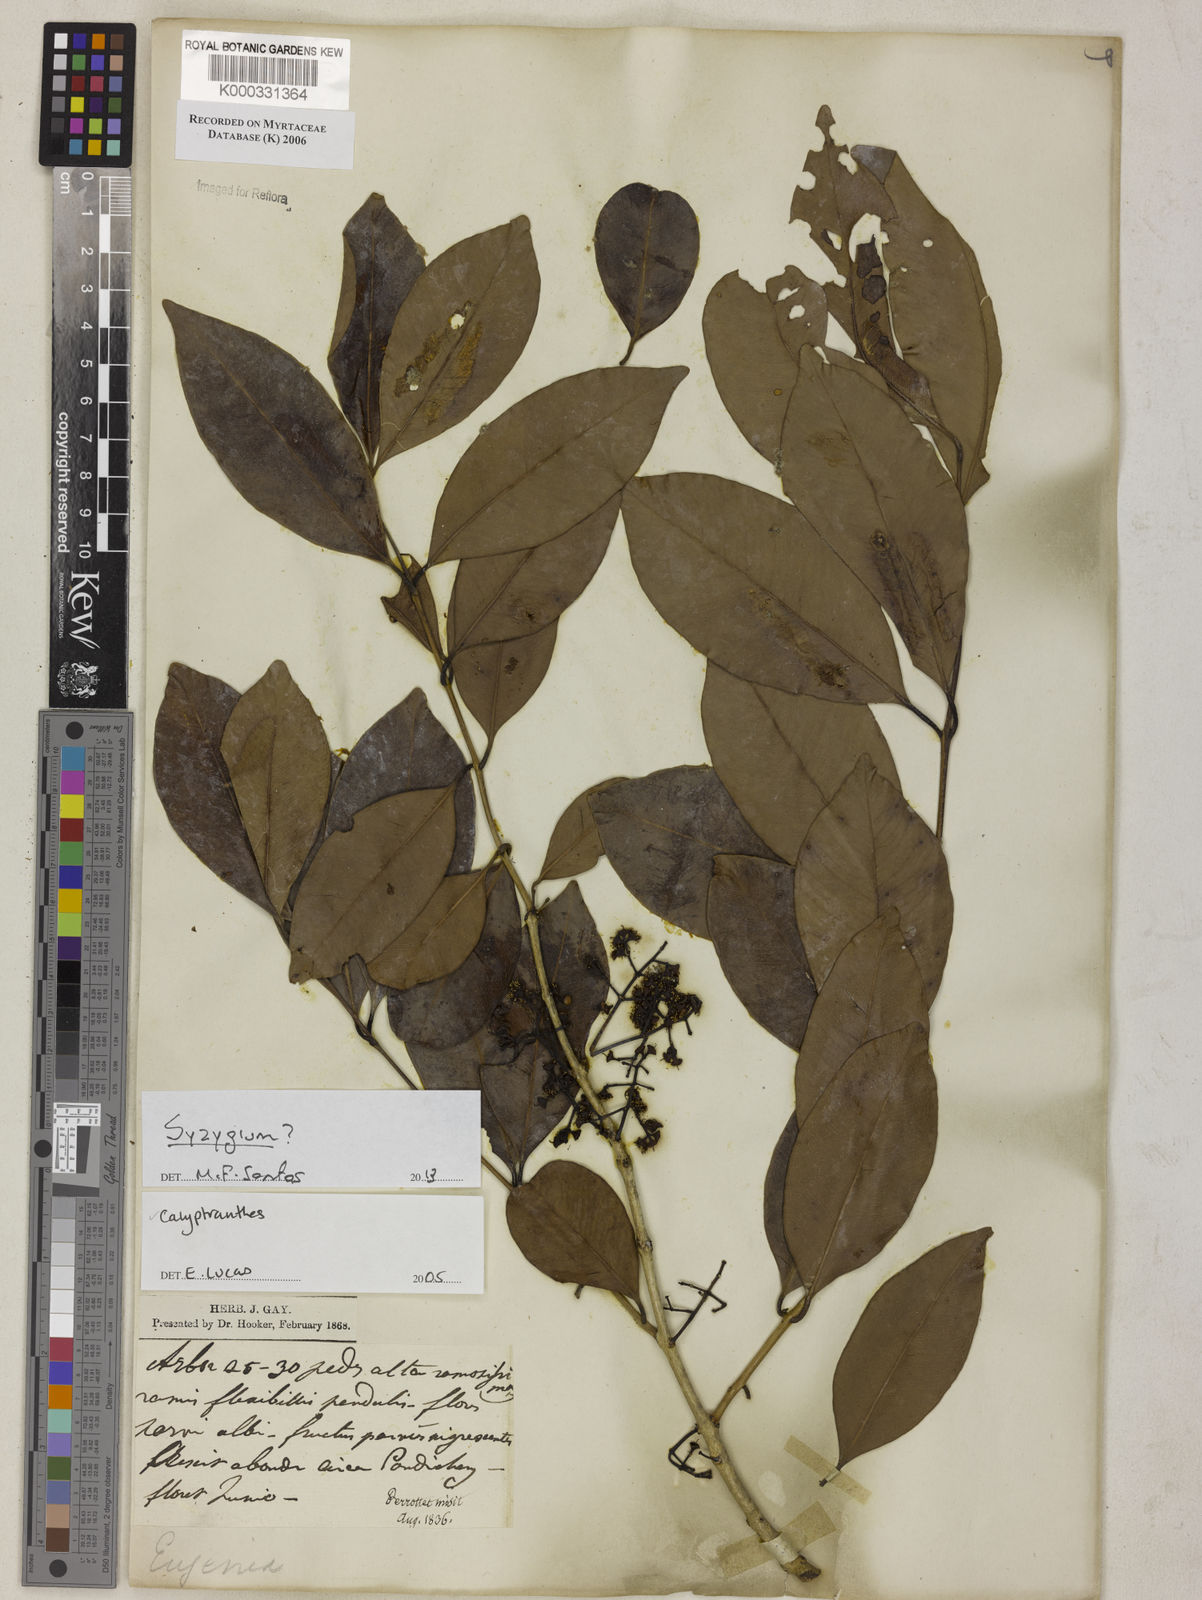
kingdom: Plantae
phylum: Tracheophyta
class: Magnoliopsida
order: Myrtales
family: Myrtaceae
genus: Calyptranthes
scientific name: Calyptranthes
